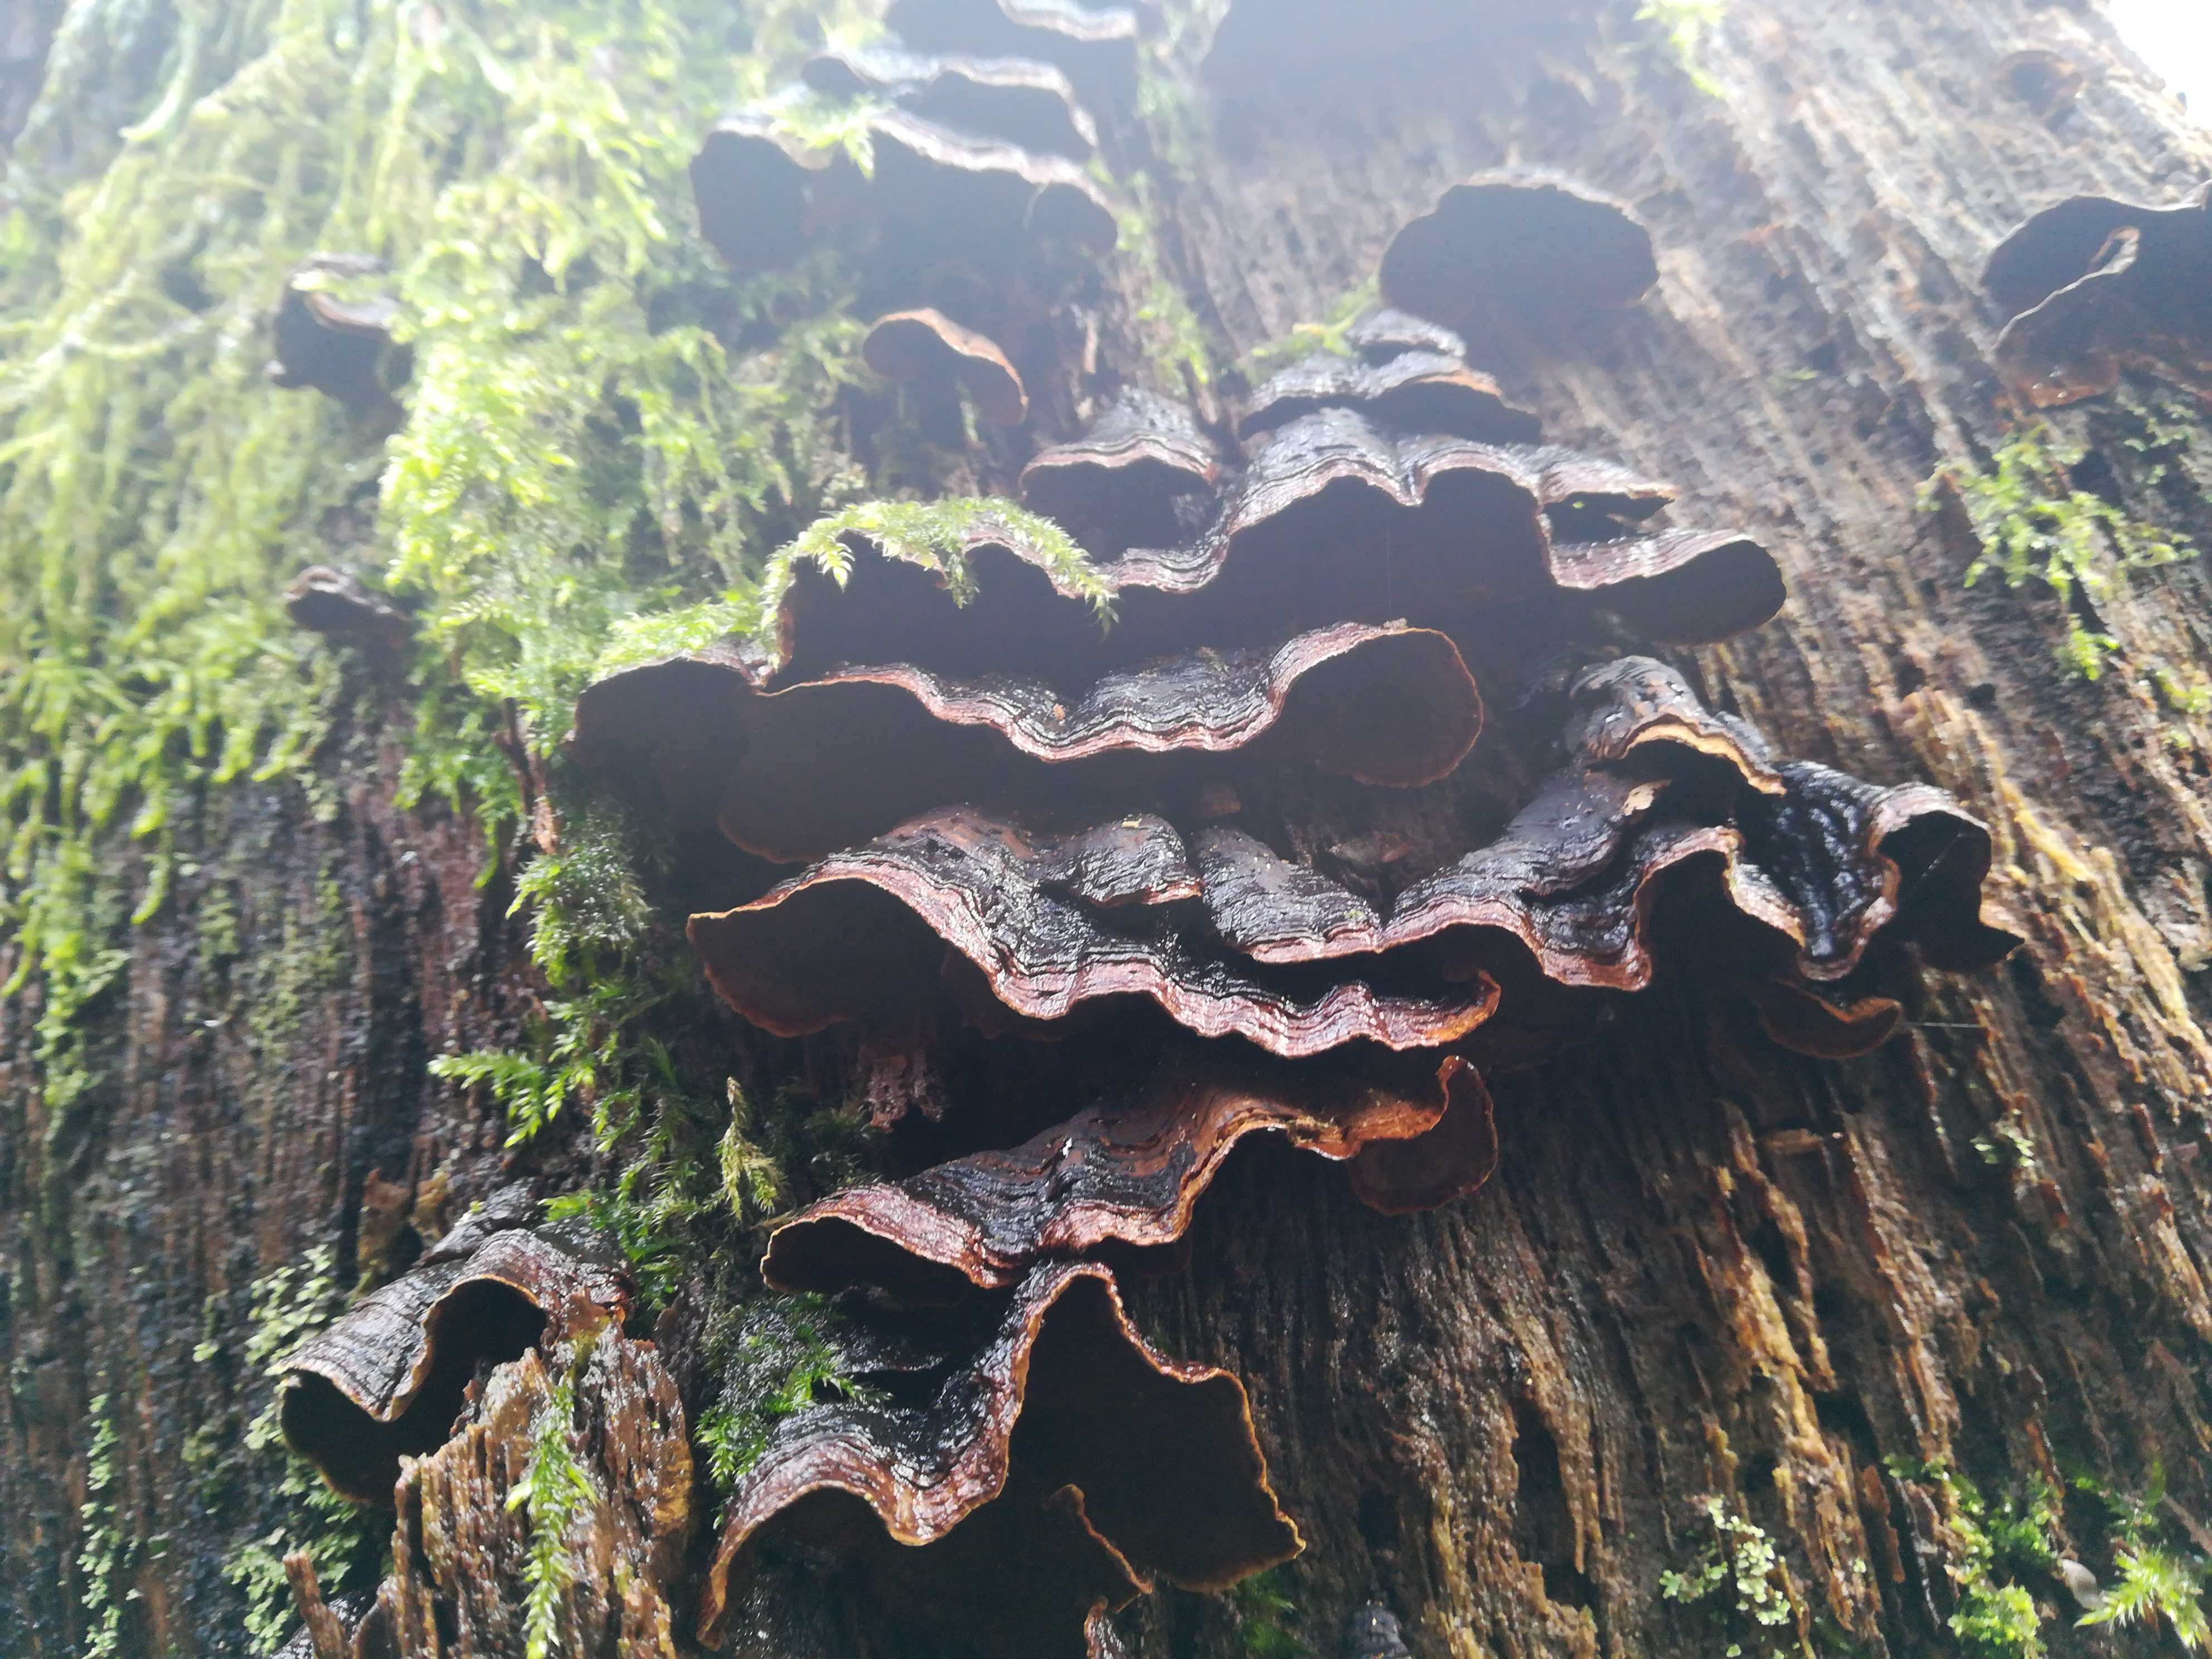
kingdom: Fungi
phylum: Basidiomycota
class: Agaricomycetes
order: Hymenochaetales
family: Hymenochaetaceae
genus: Hymenochaete
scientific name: Hymenochaete rubiginosa
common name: stiv ruslædersvamp
